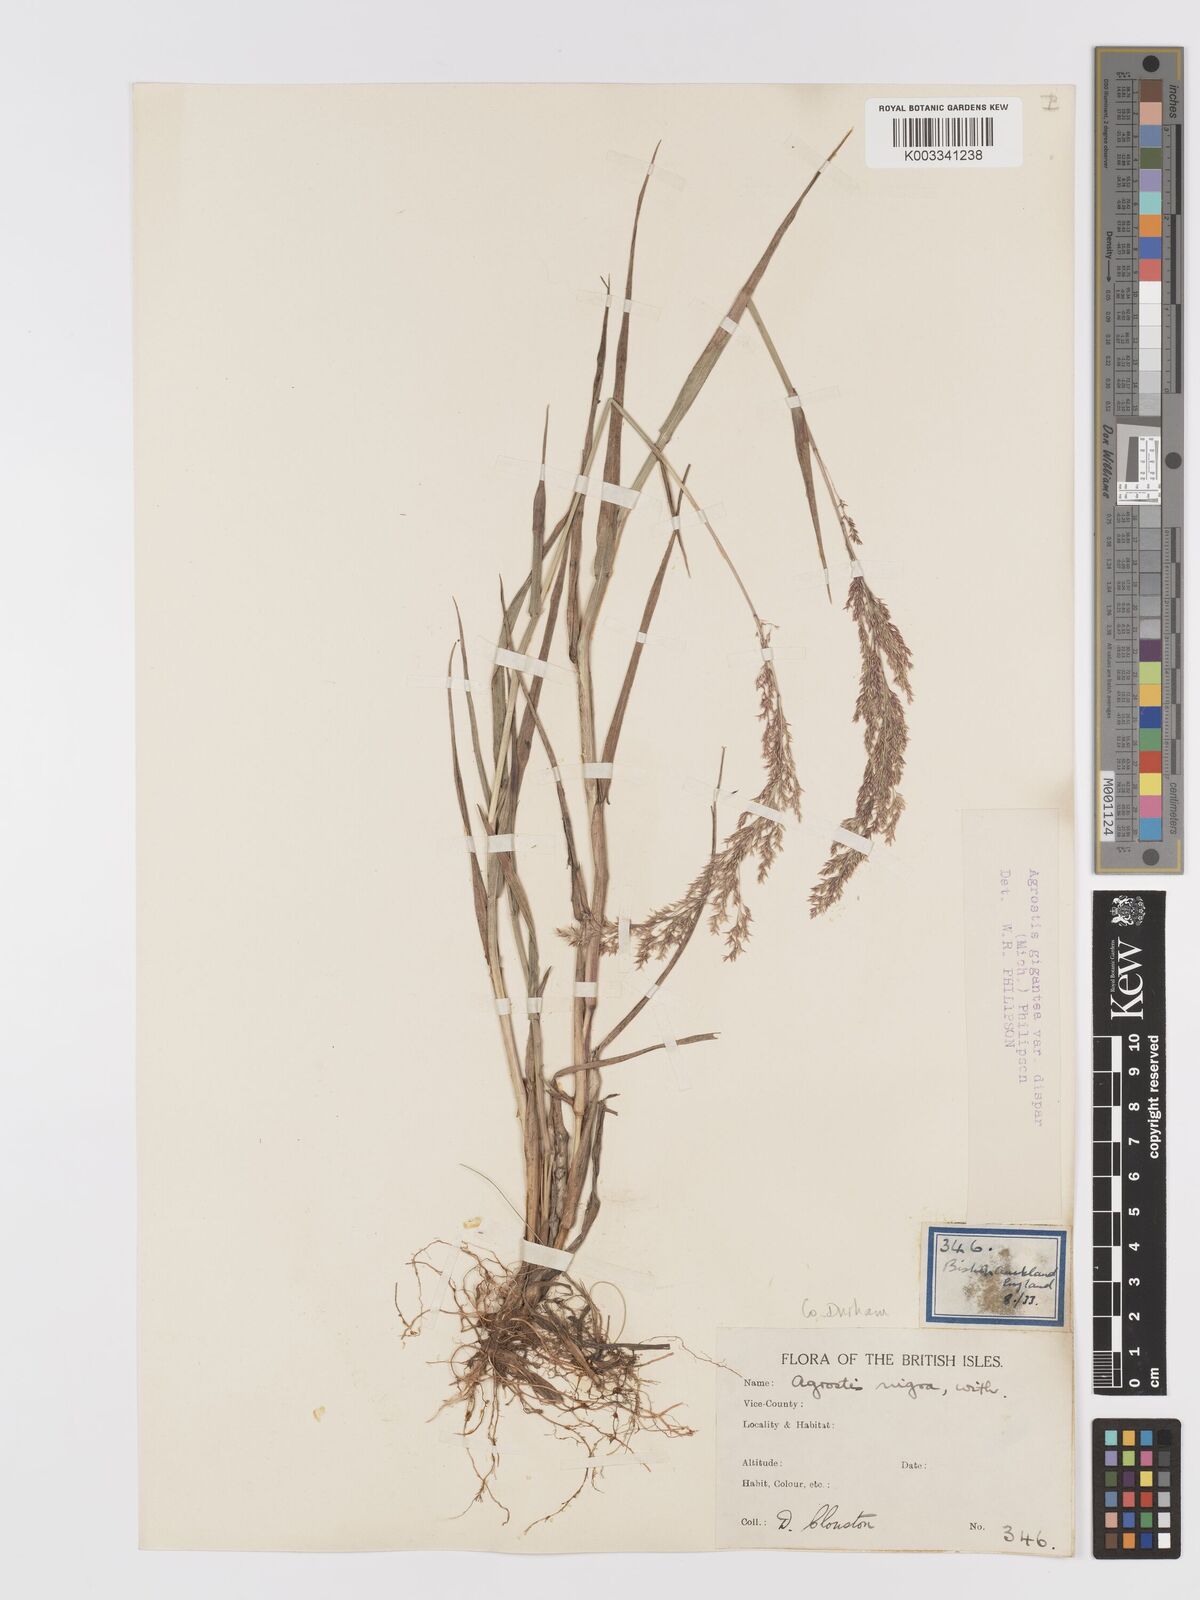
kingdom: Plantae
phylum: Tracheophyta
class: Liliopsida
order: Poales
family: Poaceae
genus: Agrostis
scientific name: Agrostis gigantea
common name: Black bent
